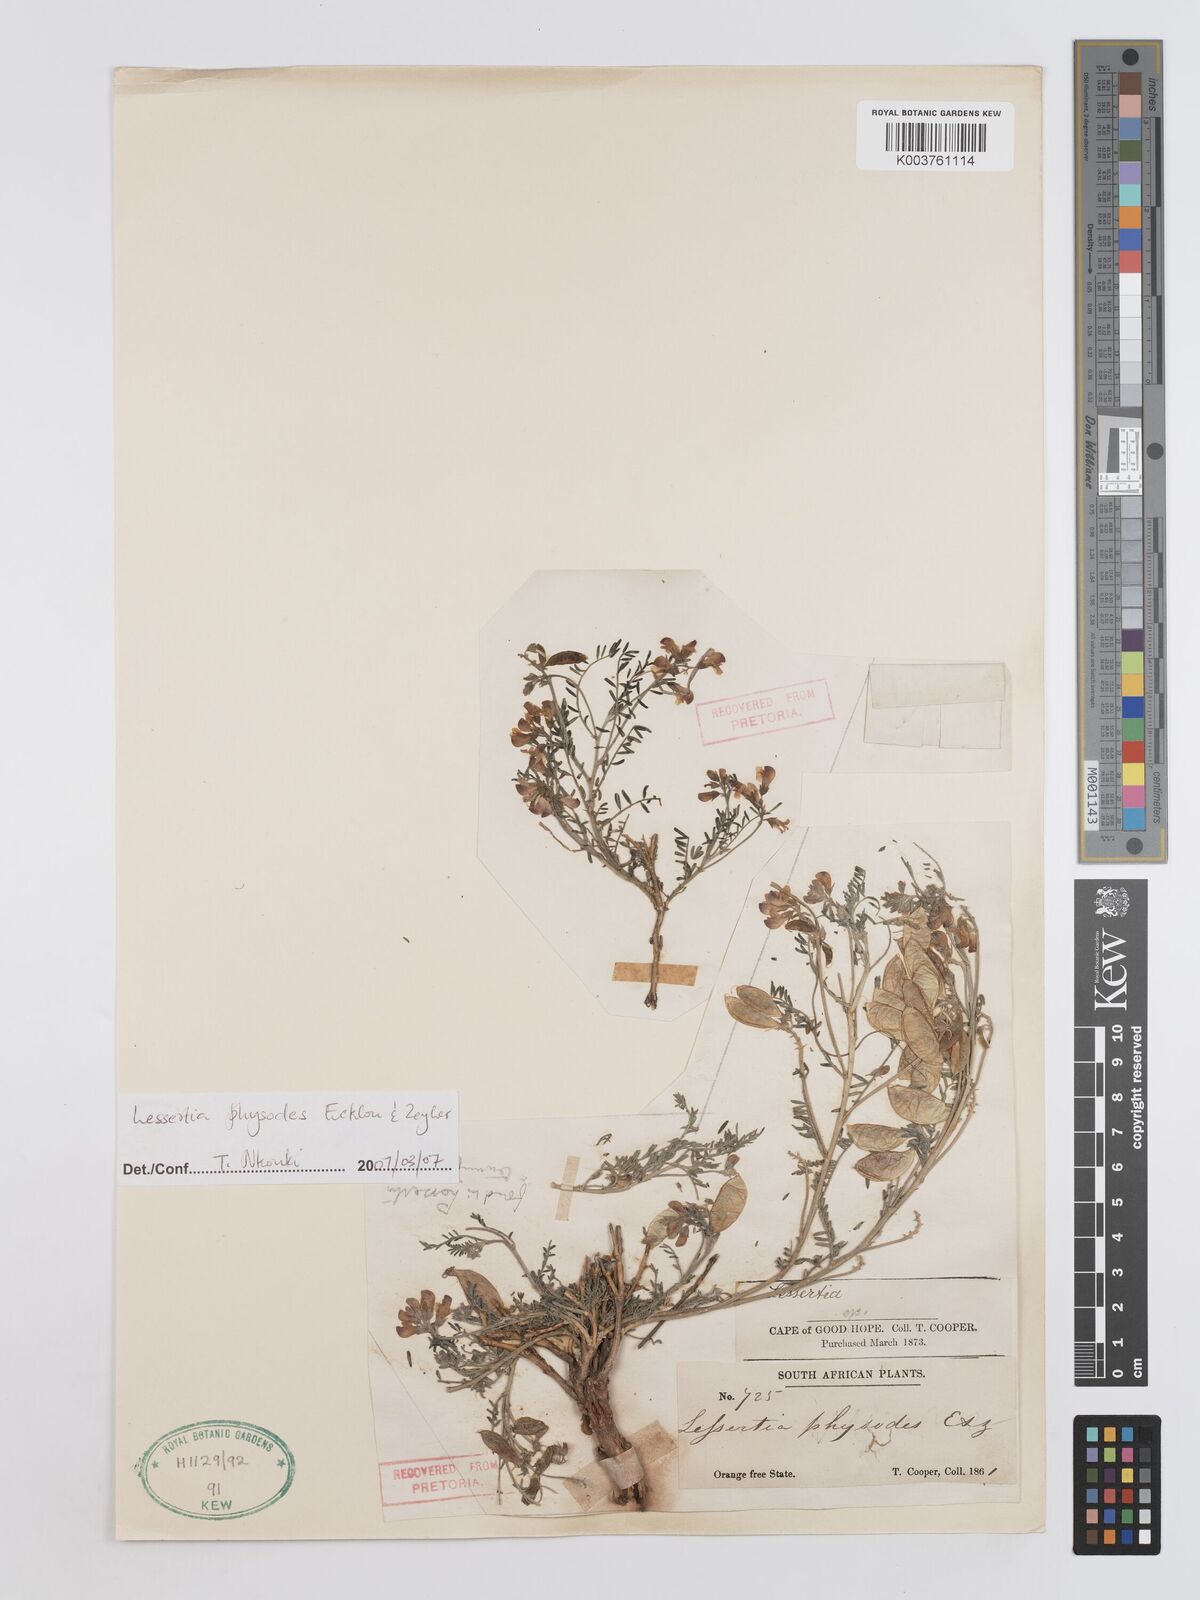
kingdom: Plantae
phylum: Tracheophyta
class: Magnoliopsida
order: Fabales
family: Fabaceae
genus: Lessertia
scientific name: Lessertia physodes
